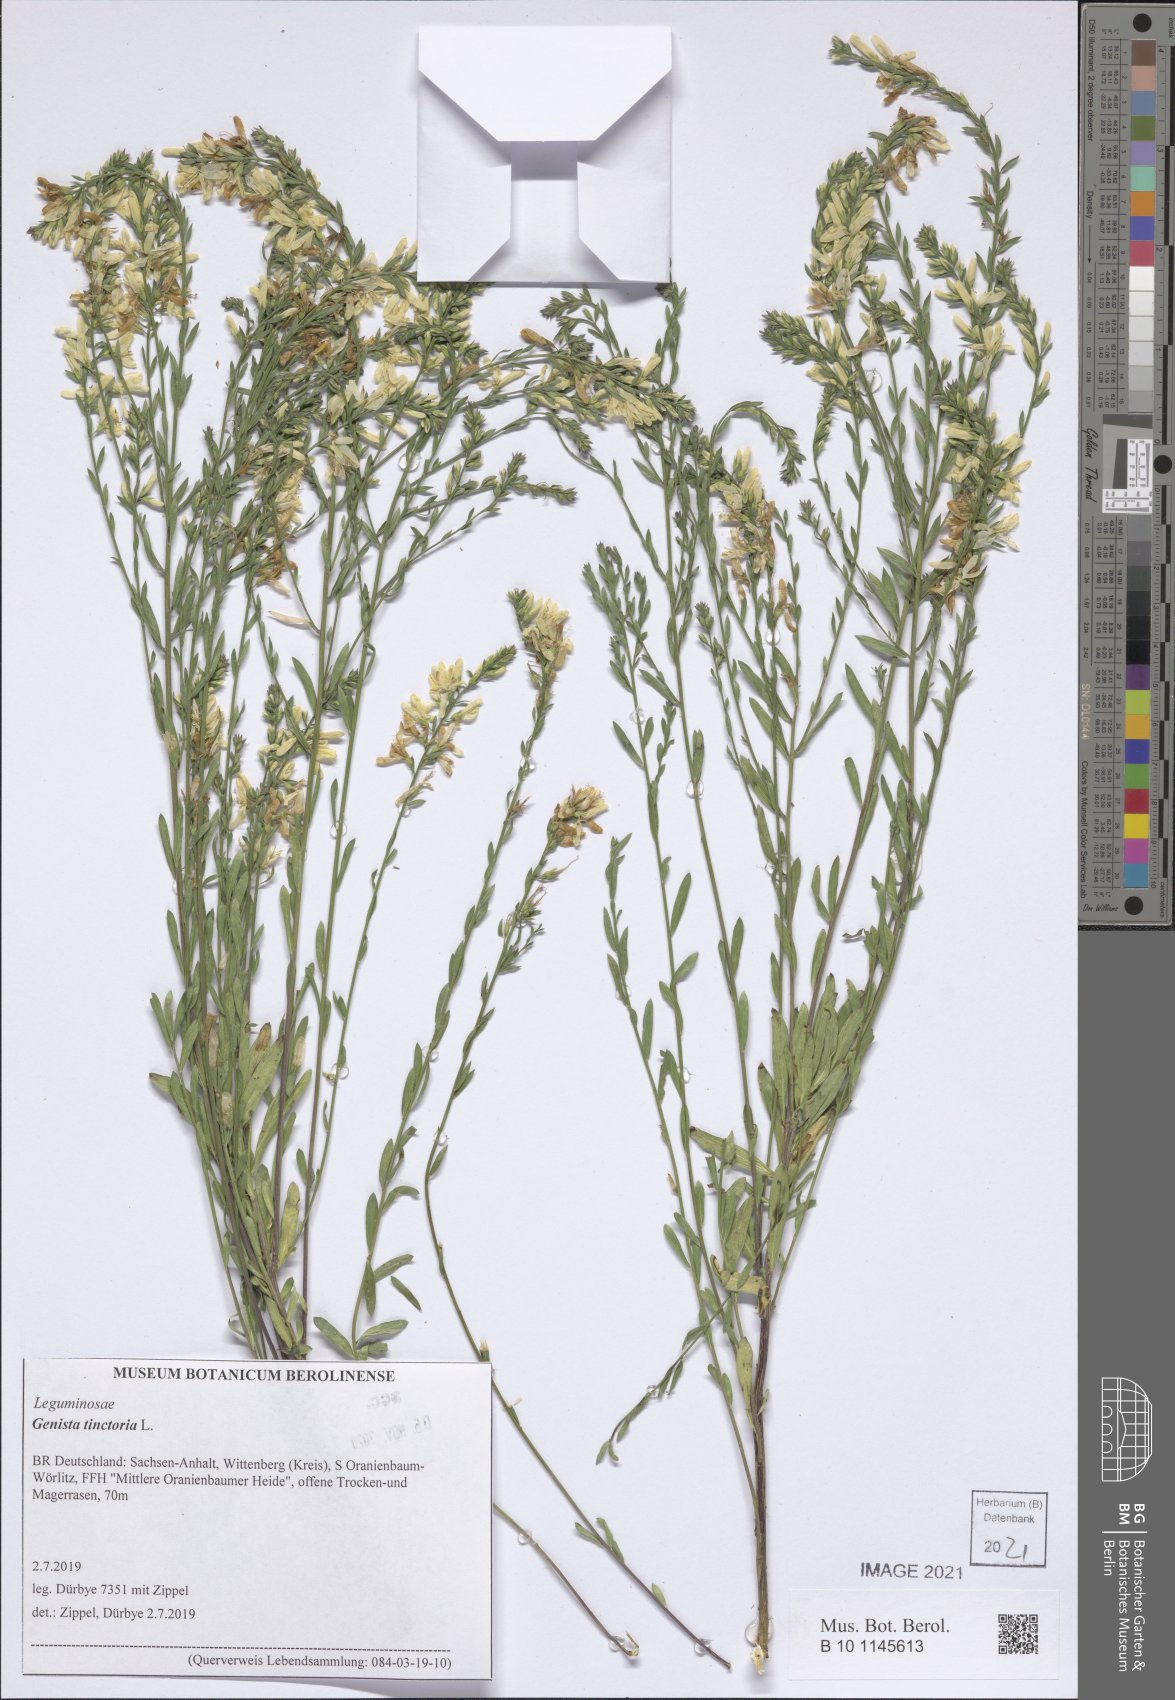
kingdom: Plantae
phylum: Tracheophyta
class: Magnoliopsida
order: Fabales
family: Fabaceae
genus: Genista
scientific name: Genista tinctoria
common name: Dyer's greenweed
